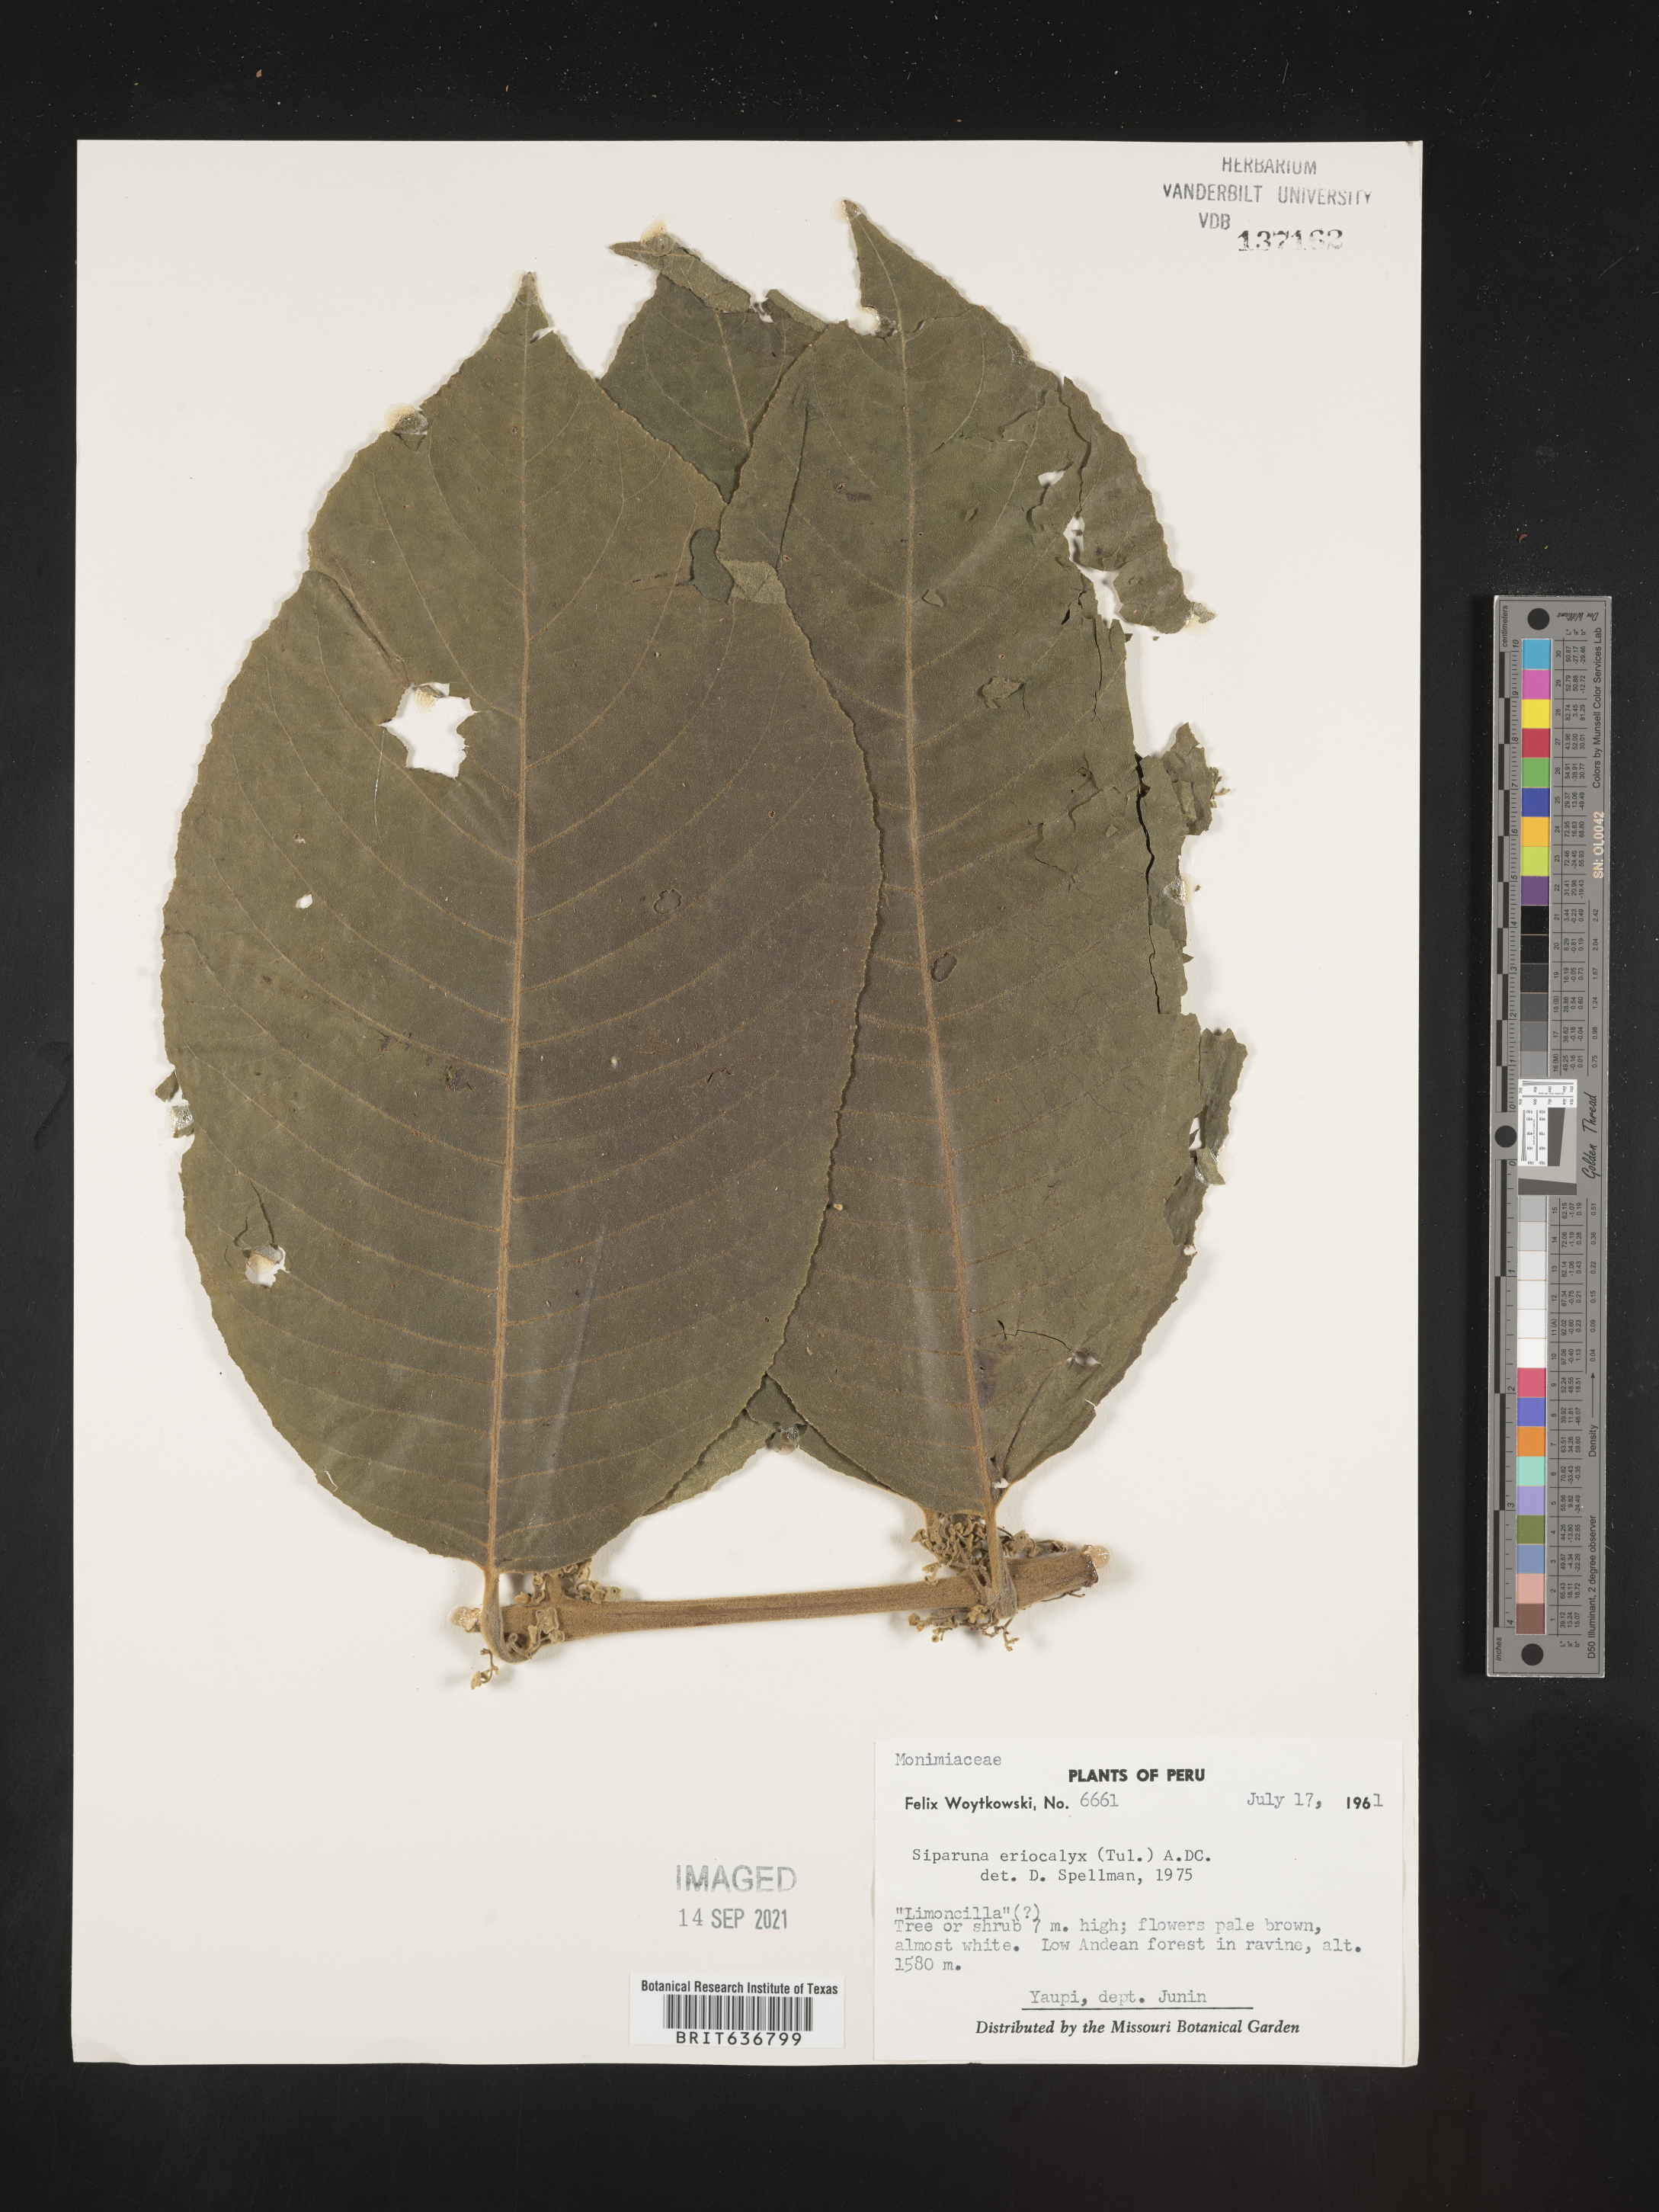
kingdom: Plantae
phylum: Tracheophyta
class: Magnoliopsida
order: Laurales
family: Siparunaceae
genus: Siparuna
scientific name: Siparuna
